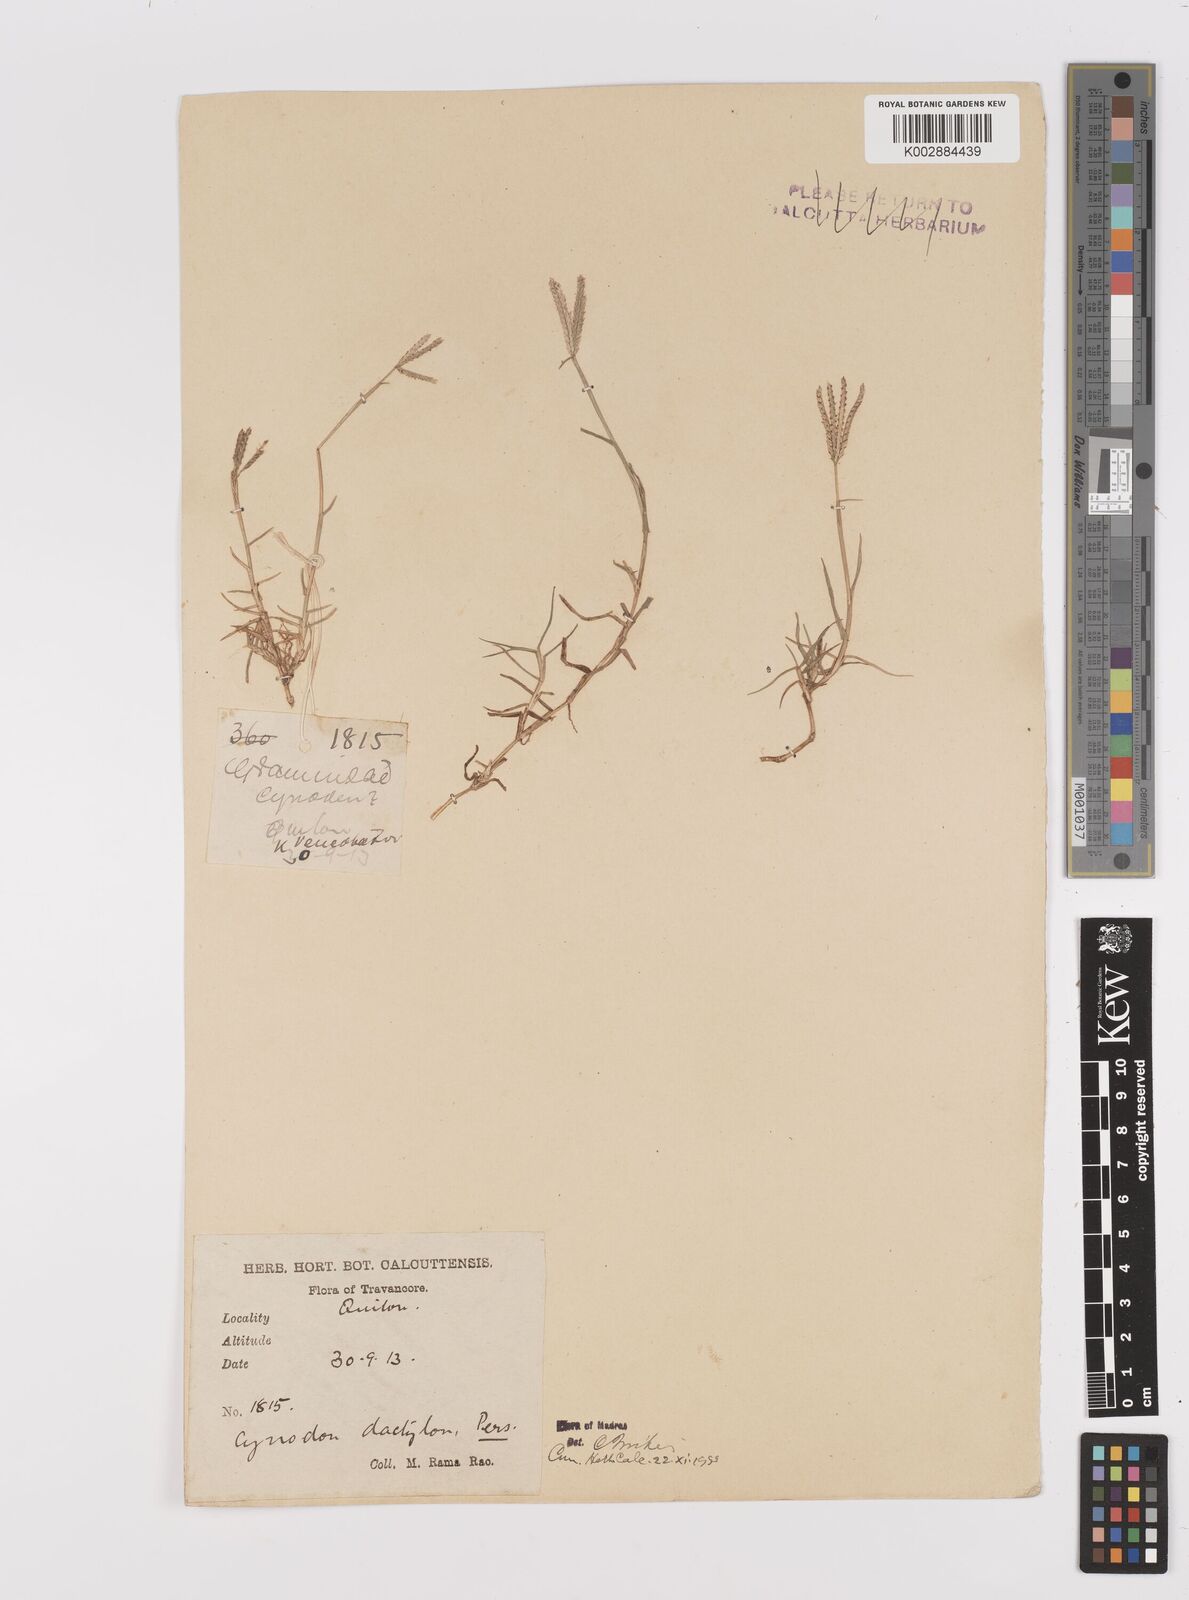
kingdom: Plantae
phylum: Tracheophyta
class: Liliopsida
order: Poales
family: Poaceae
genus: Cynodon
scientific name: Cynodon dactylon
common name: Bermuda grass
